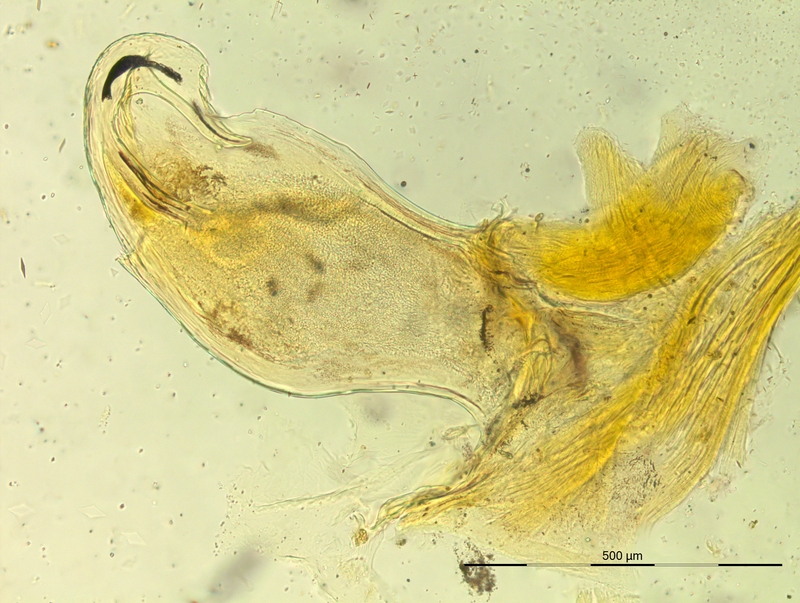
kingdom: Animalia
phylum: Arthropoda
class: Diplopoda
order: Chordeumatida
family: Craspedosomatidae
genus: Bergamosoma
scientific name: Bergamosoma sevini
